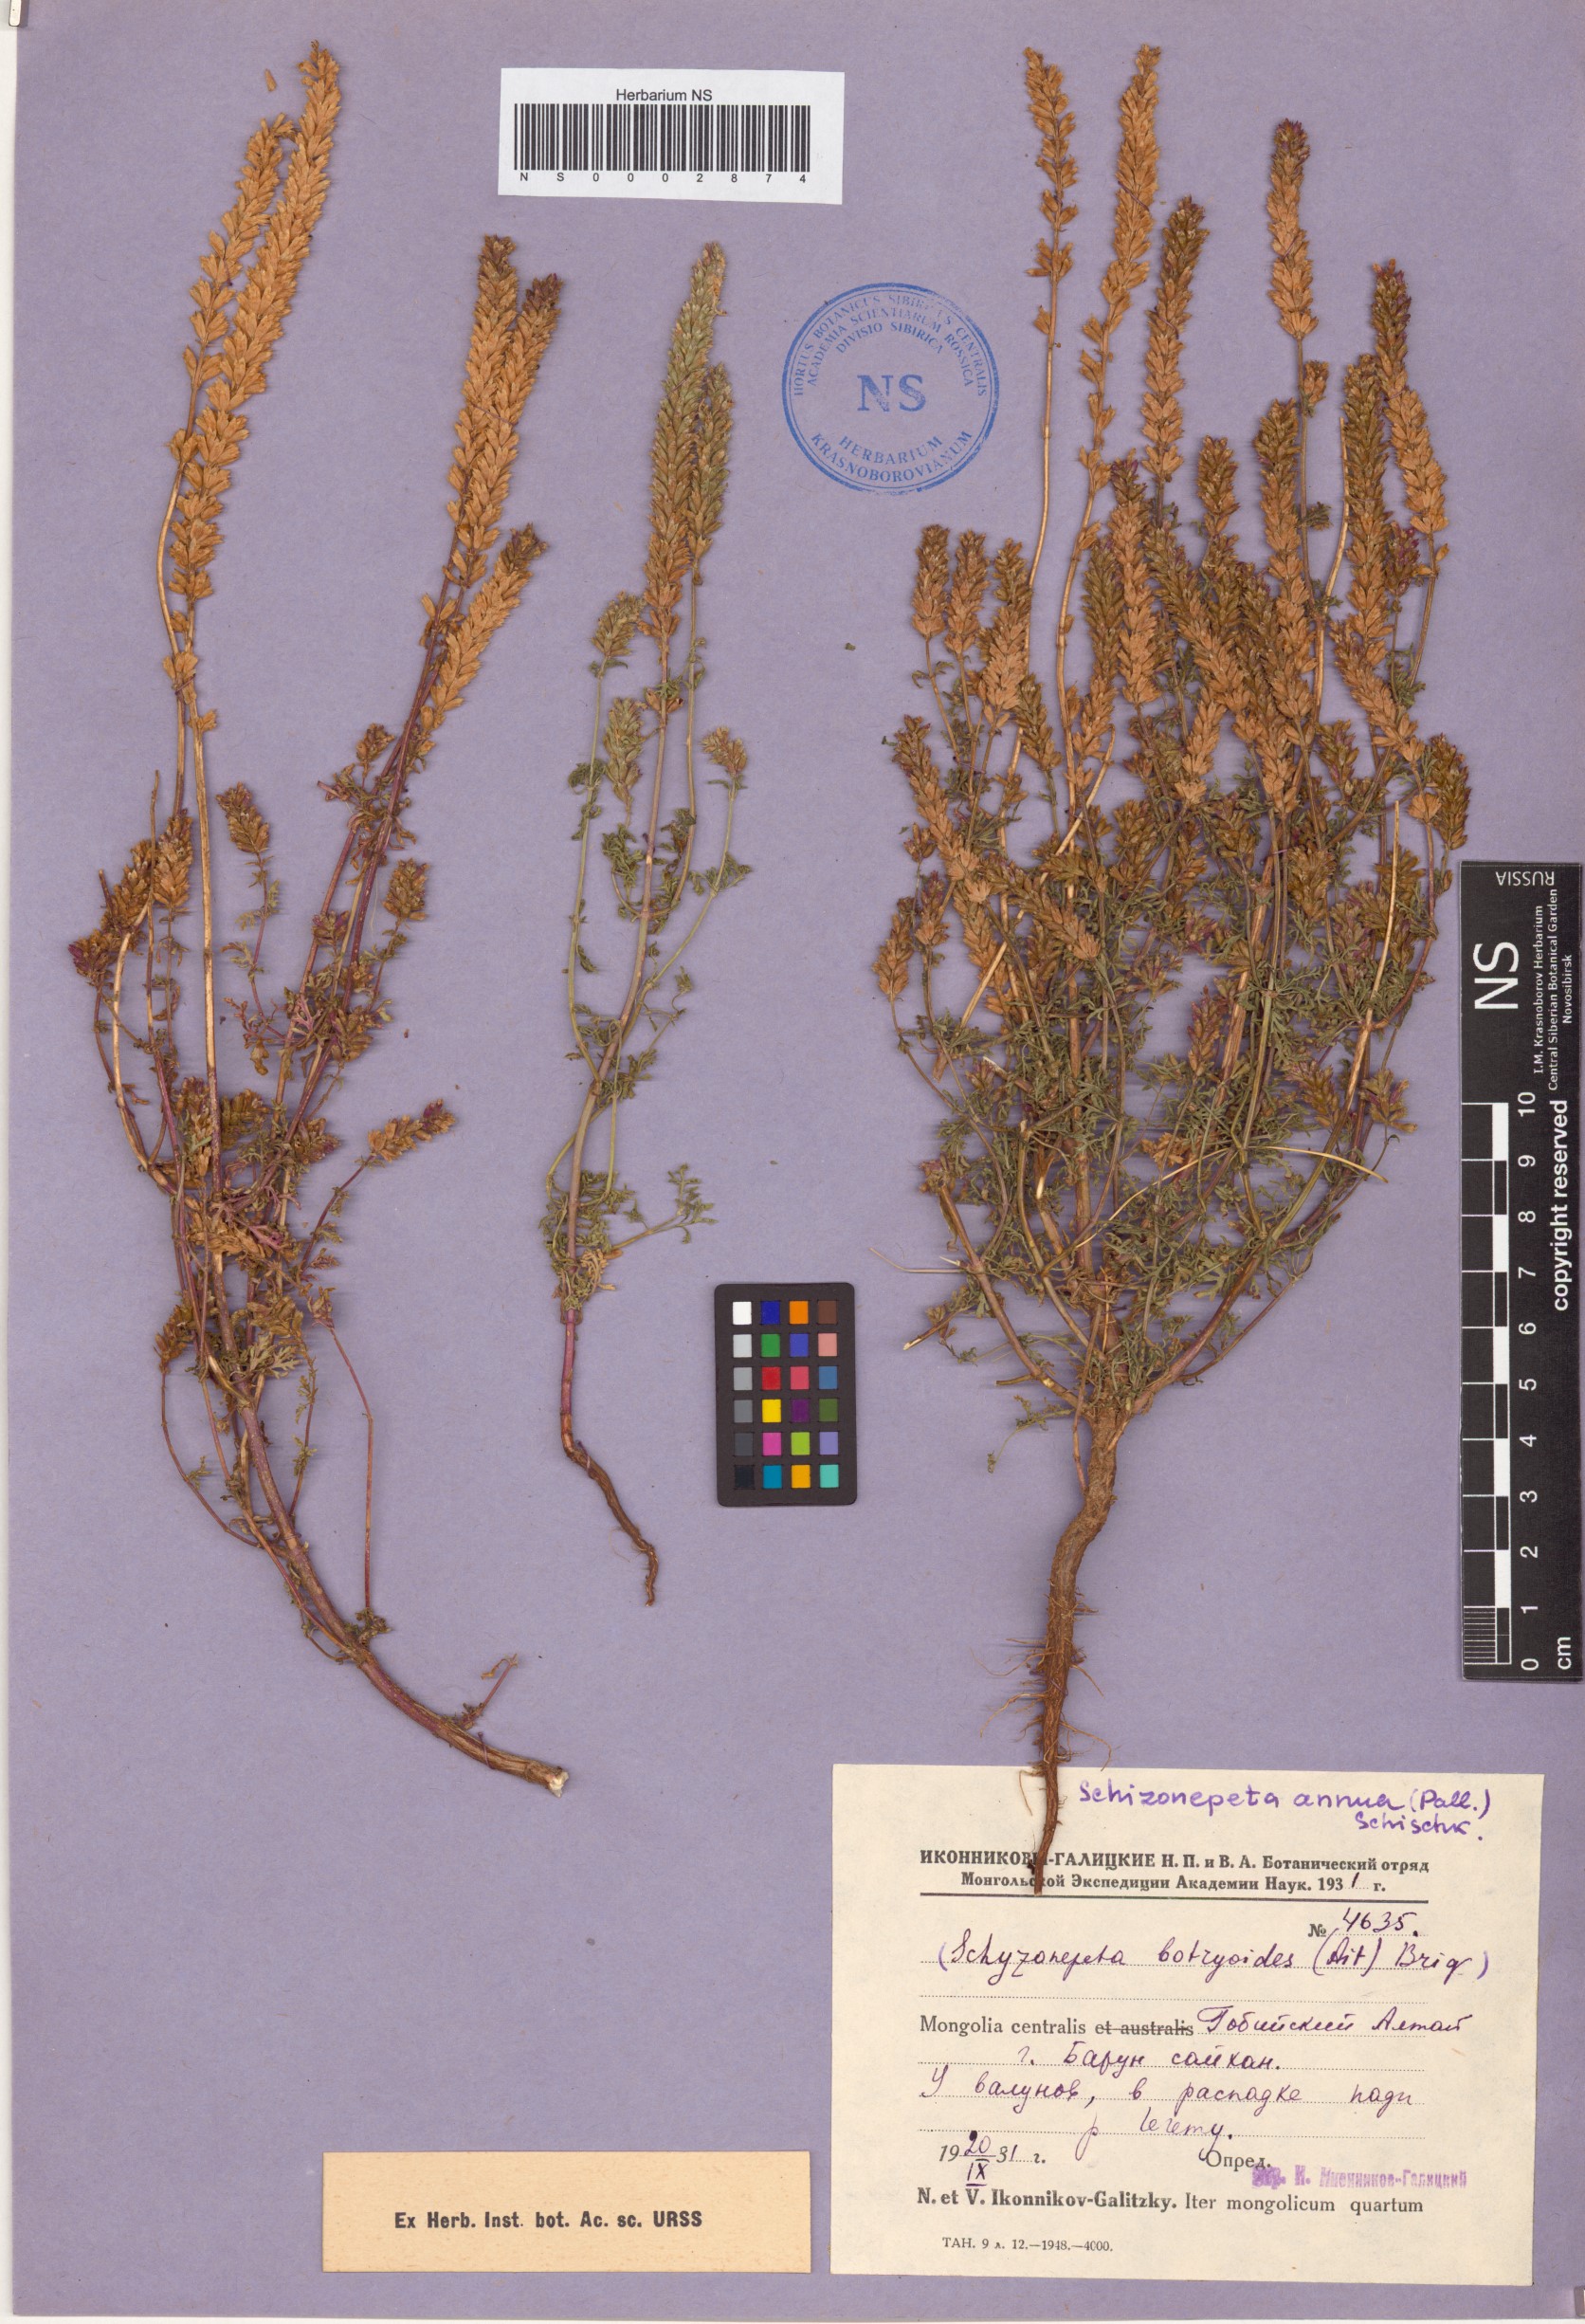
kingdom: Plantae
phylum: Tracheophyta
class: Magnoliopsida
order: Lamiales
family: Lamiaceae
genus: Nepeta
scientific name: Nepeta annua
